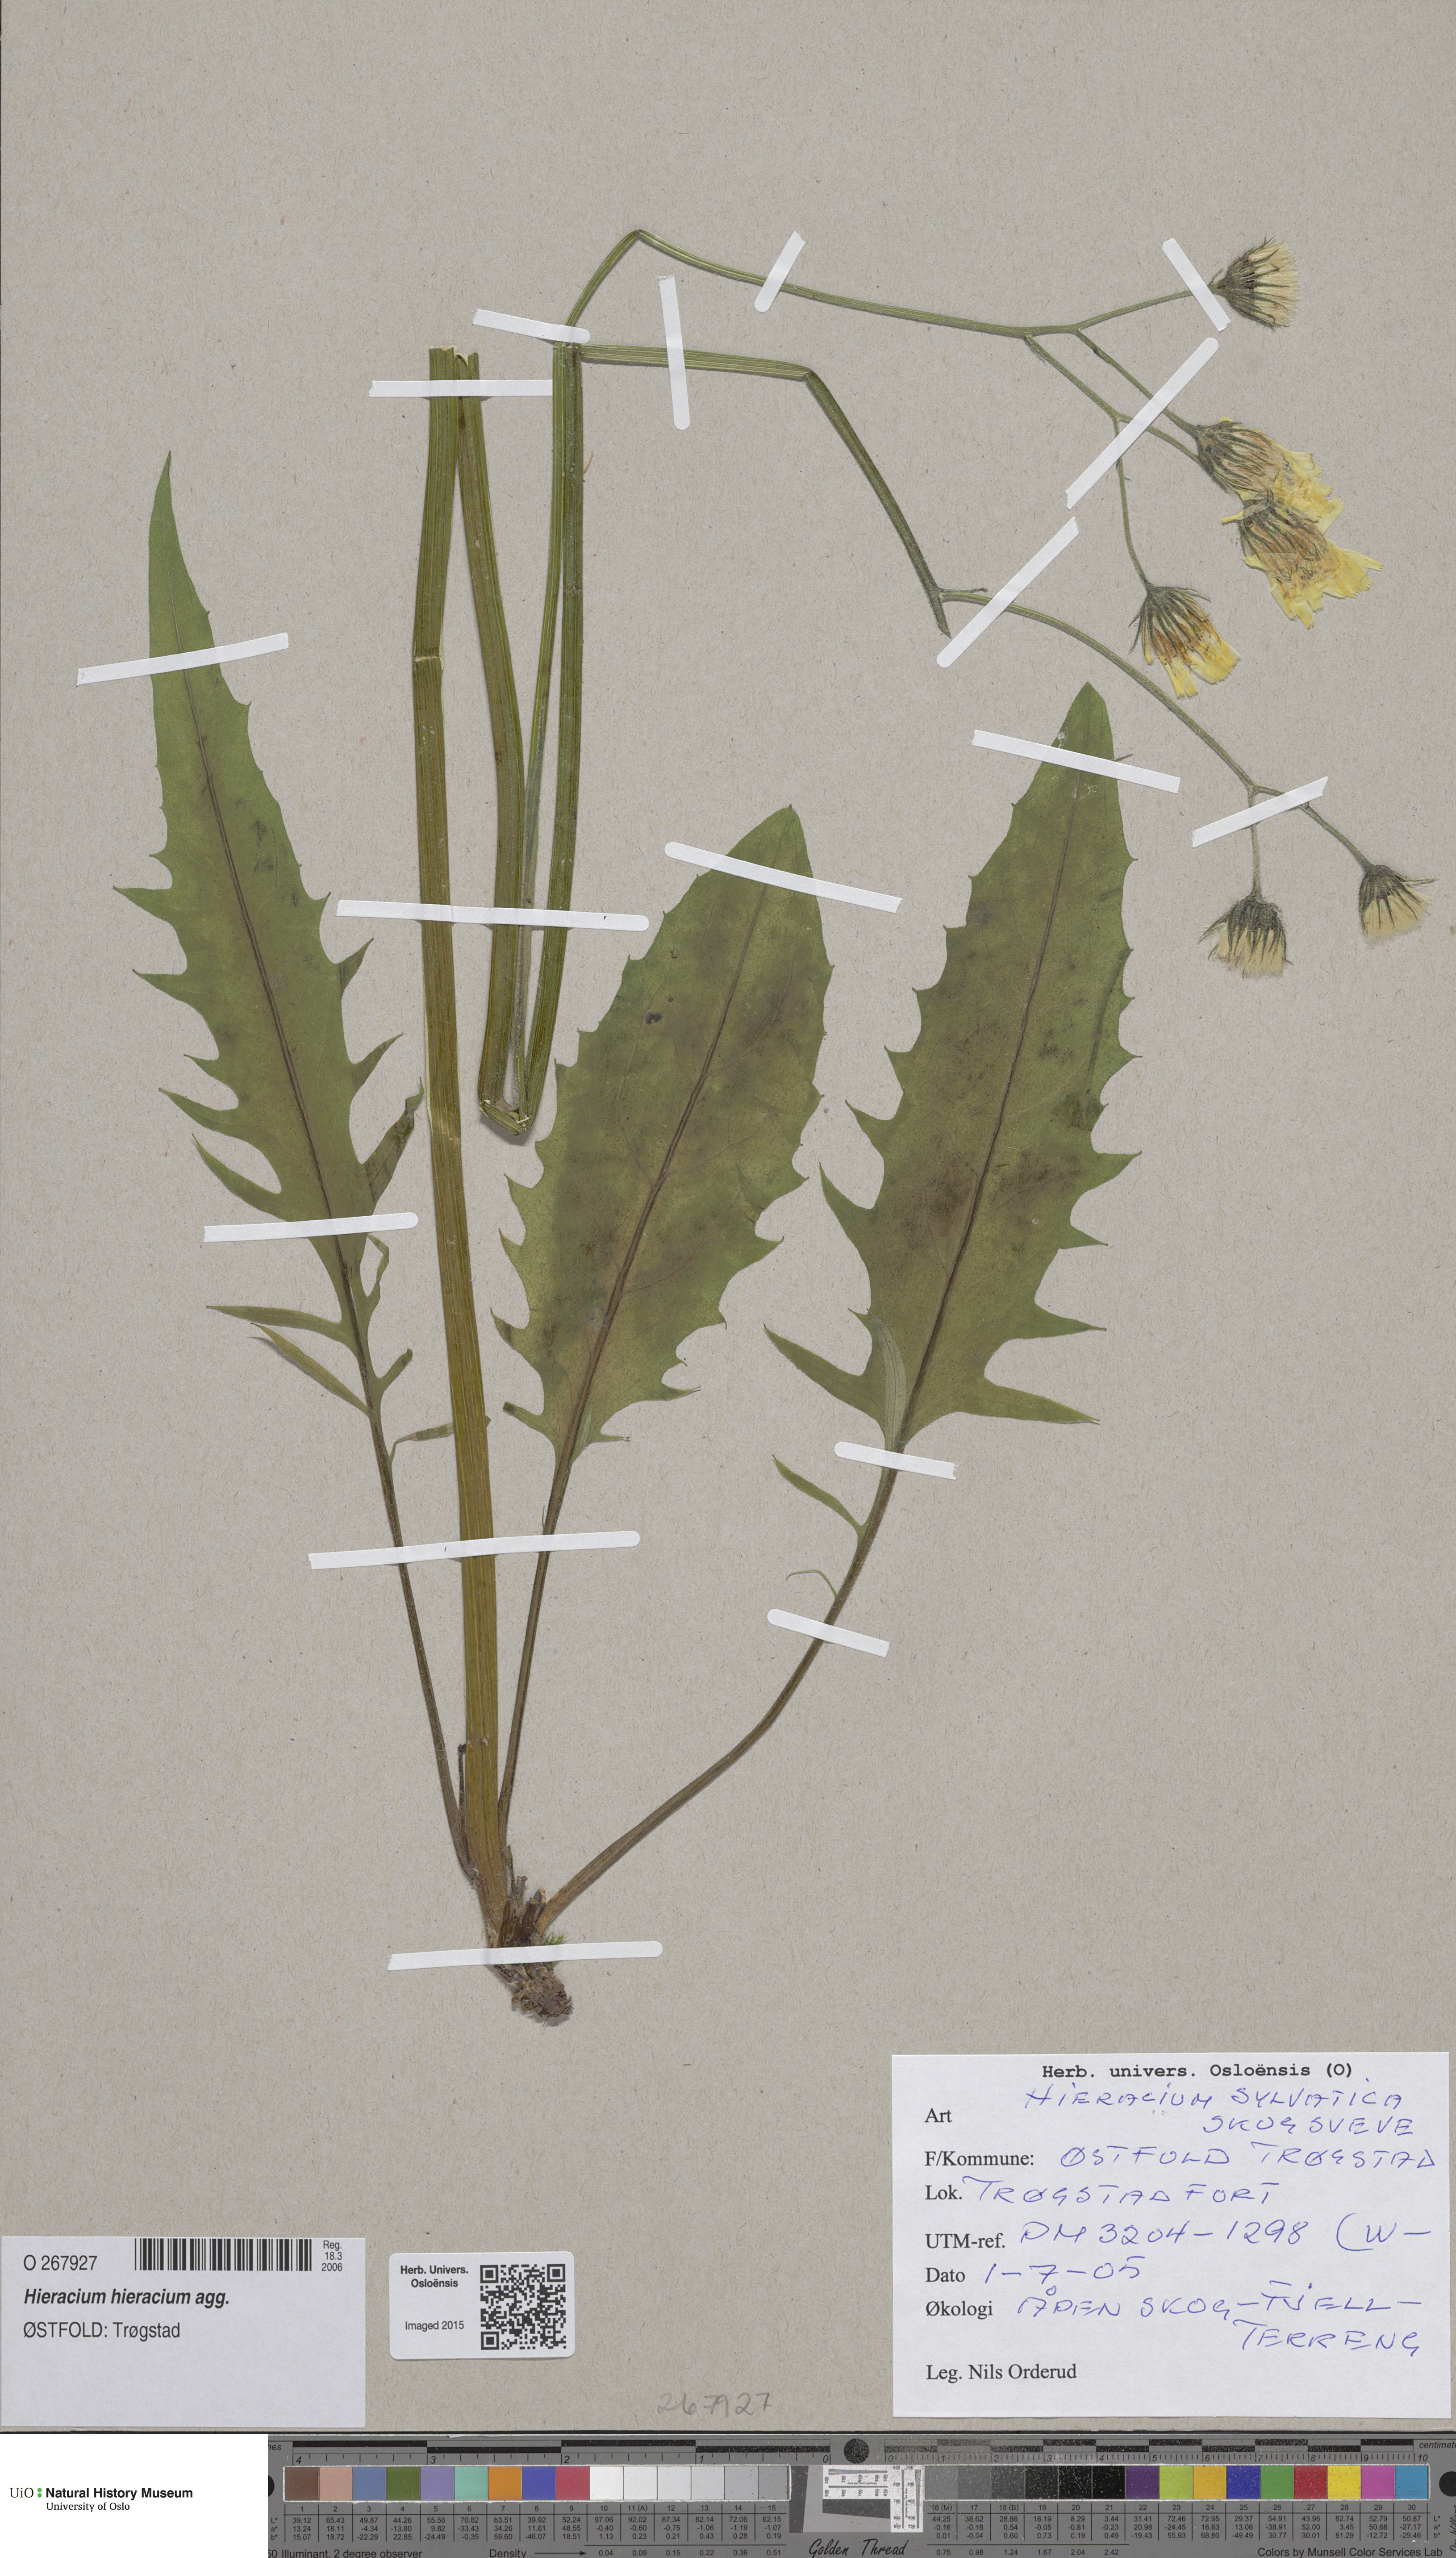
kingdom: Plantae
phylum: Tracheophyta
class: Magnoliopsida
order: Asterales
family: Asteraceae
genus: Hieracium
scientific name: Hieracium
